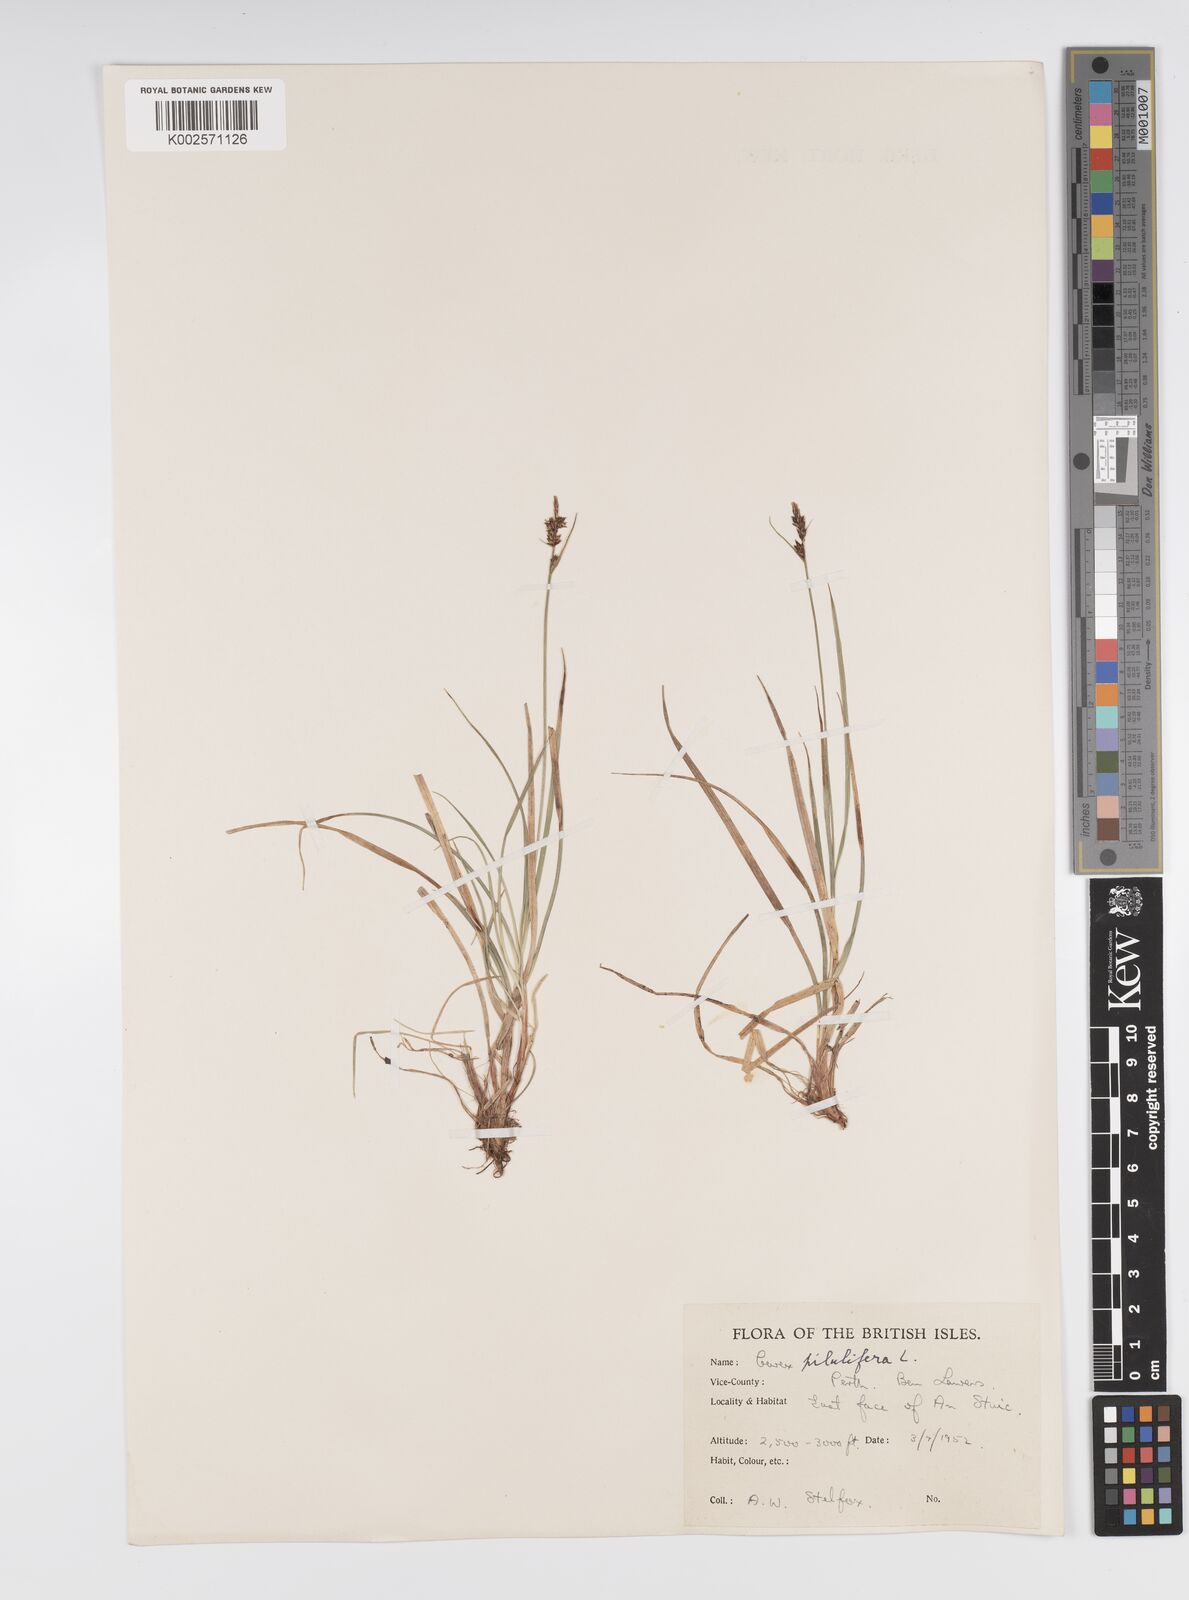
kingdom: Plantae
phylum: Tracheophyta
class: Liliopsida
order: Poales
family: Cyperaceae
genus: Carex
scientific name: Carex pilulifera
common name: Pill sedge
